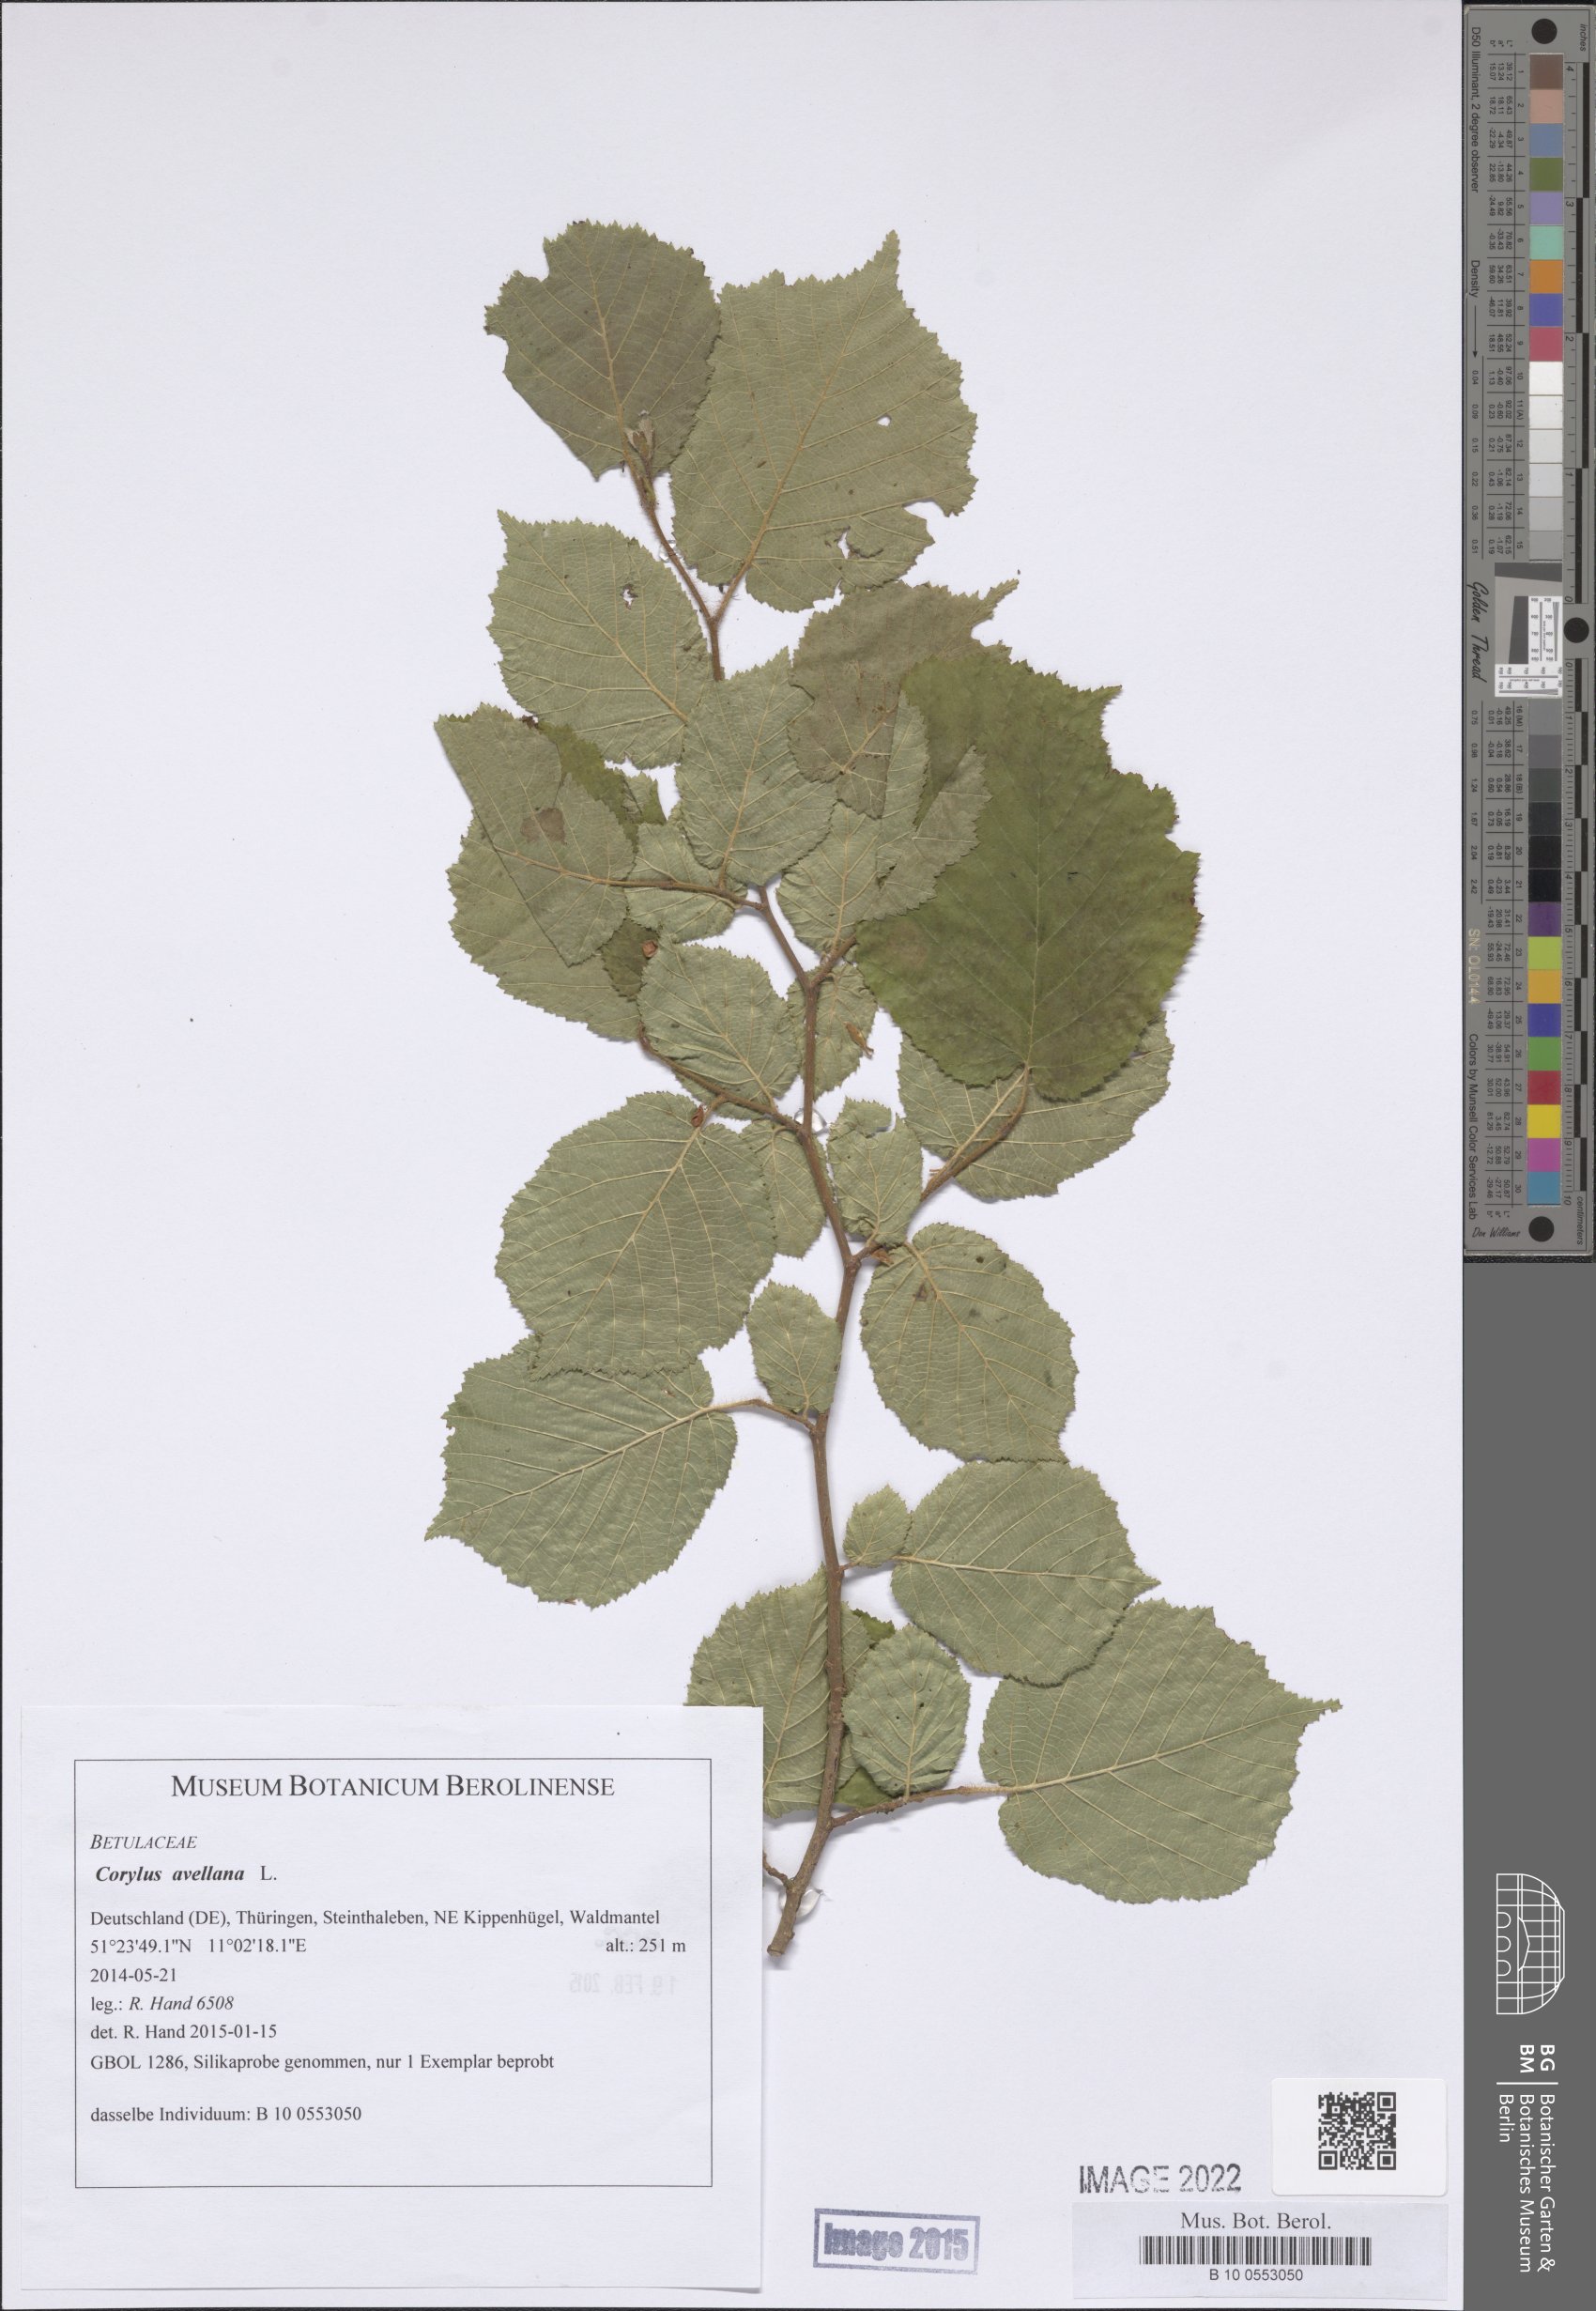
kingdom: Plantae
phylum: Tracheophyta
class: Magnoliopsida
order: Fagales
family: Betulaceae
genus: Corylus
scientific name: Corylus avellana
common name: European hazel
